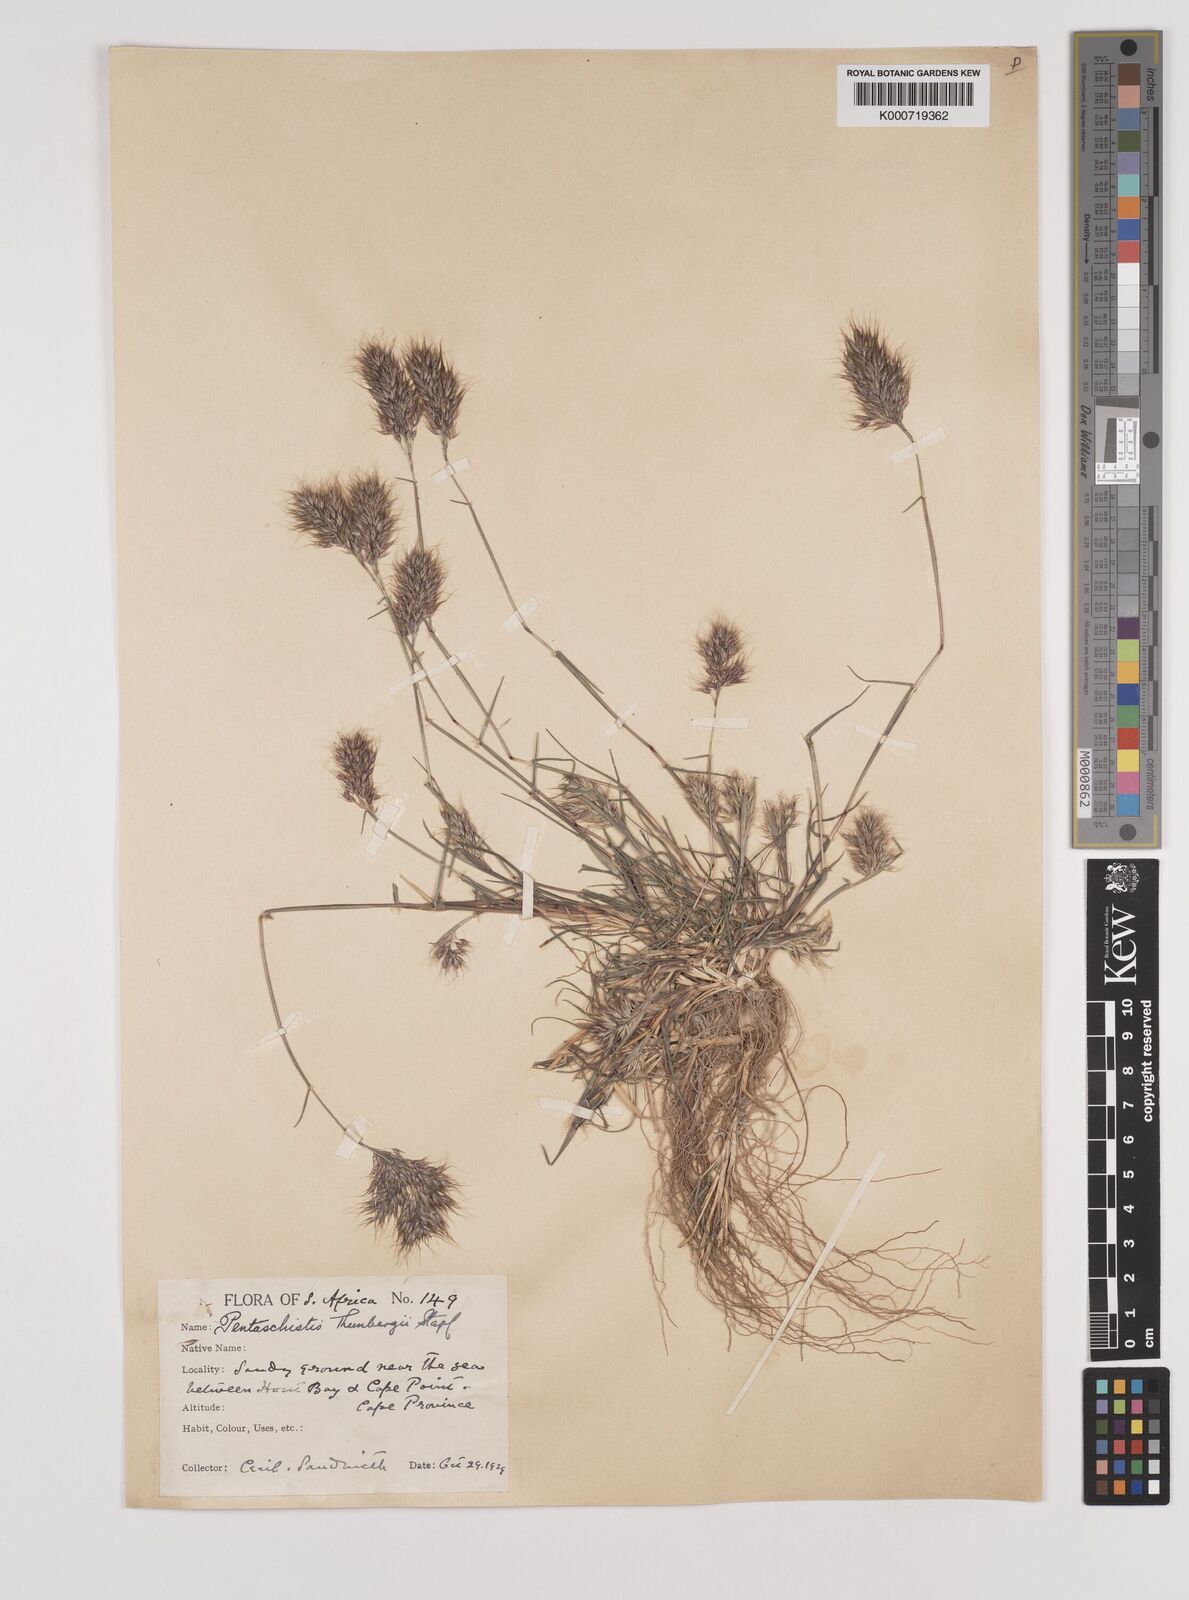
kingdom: Plantae
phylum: Tracheophyta
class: Liliopsida
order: Poales
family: Poaceae
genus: Pentameris
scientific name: Pentameris triseta
